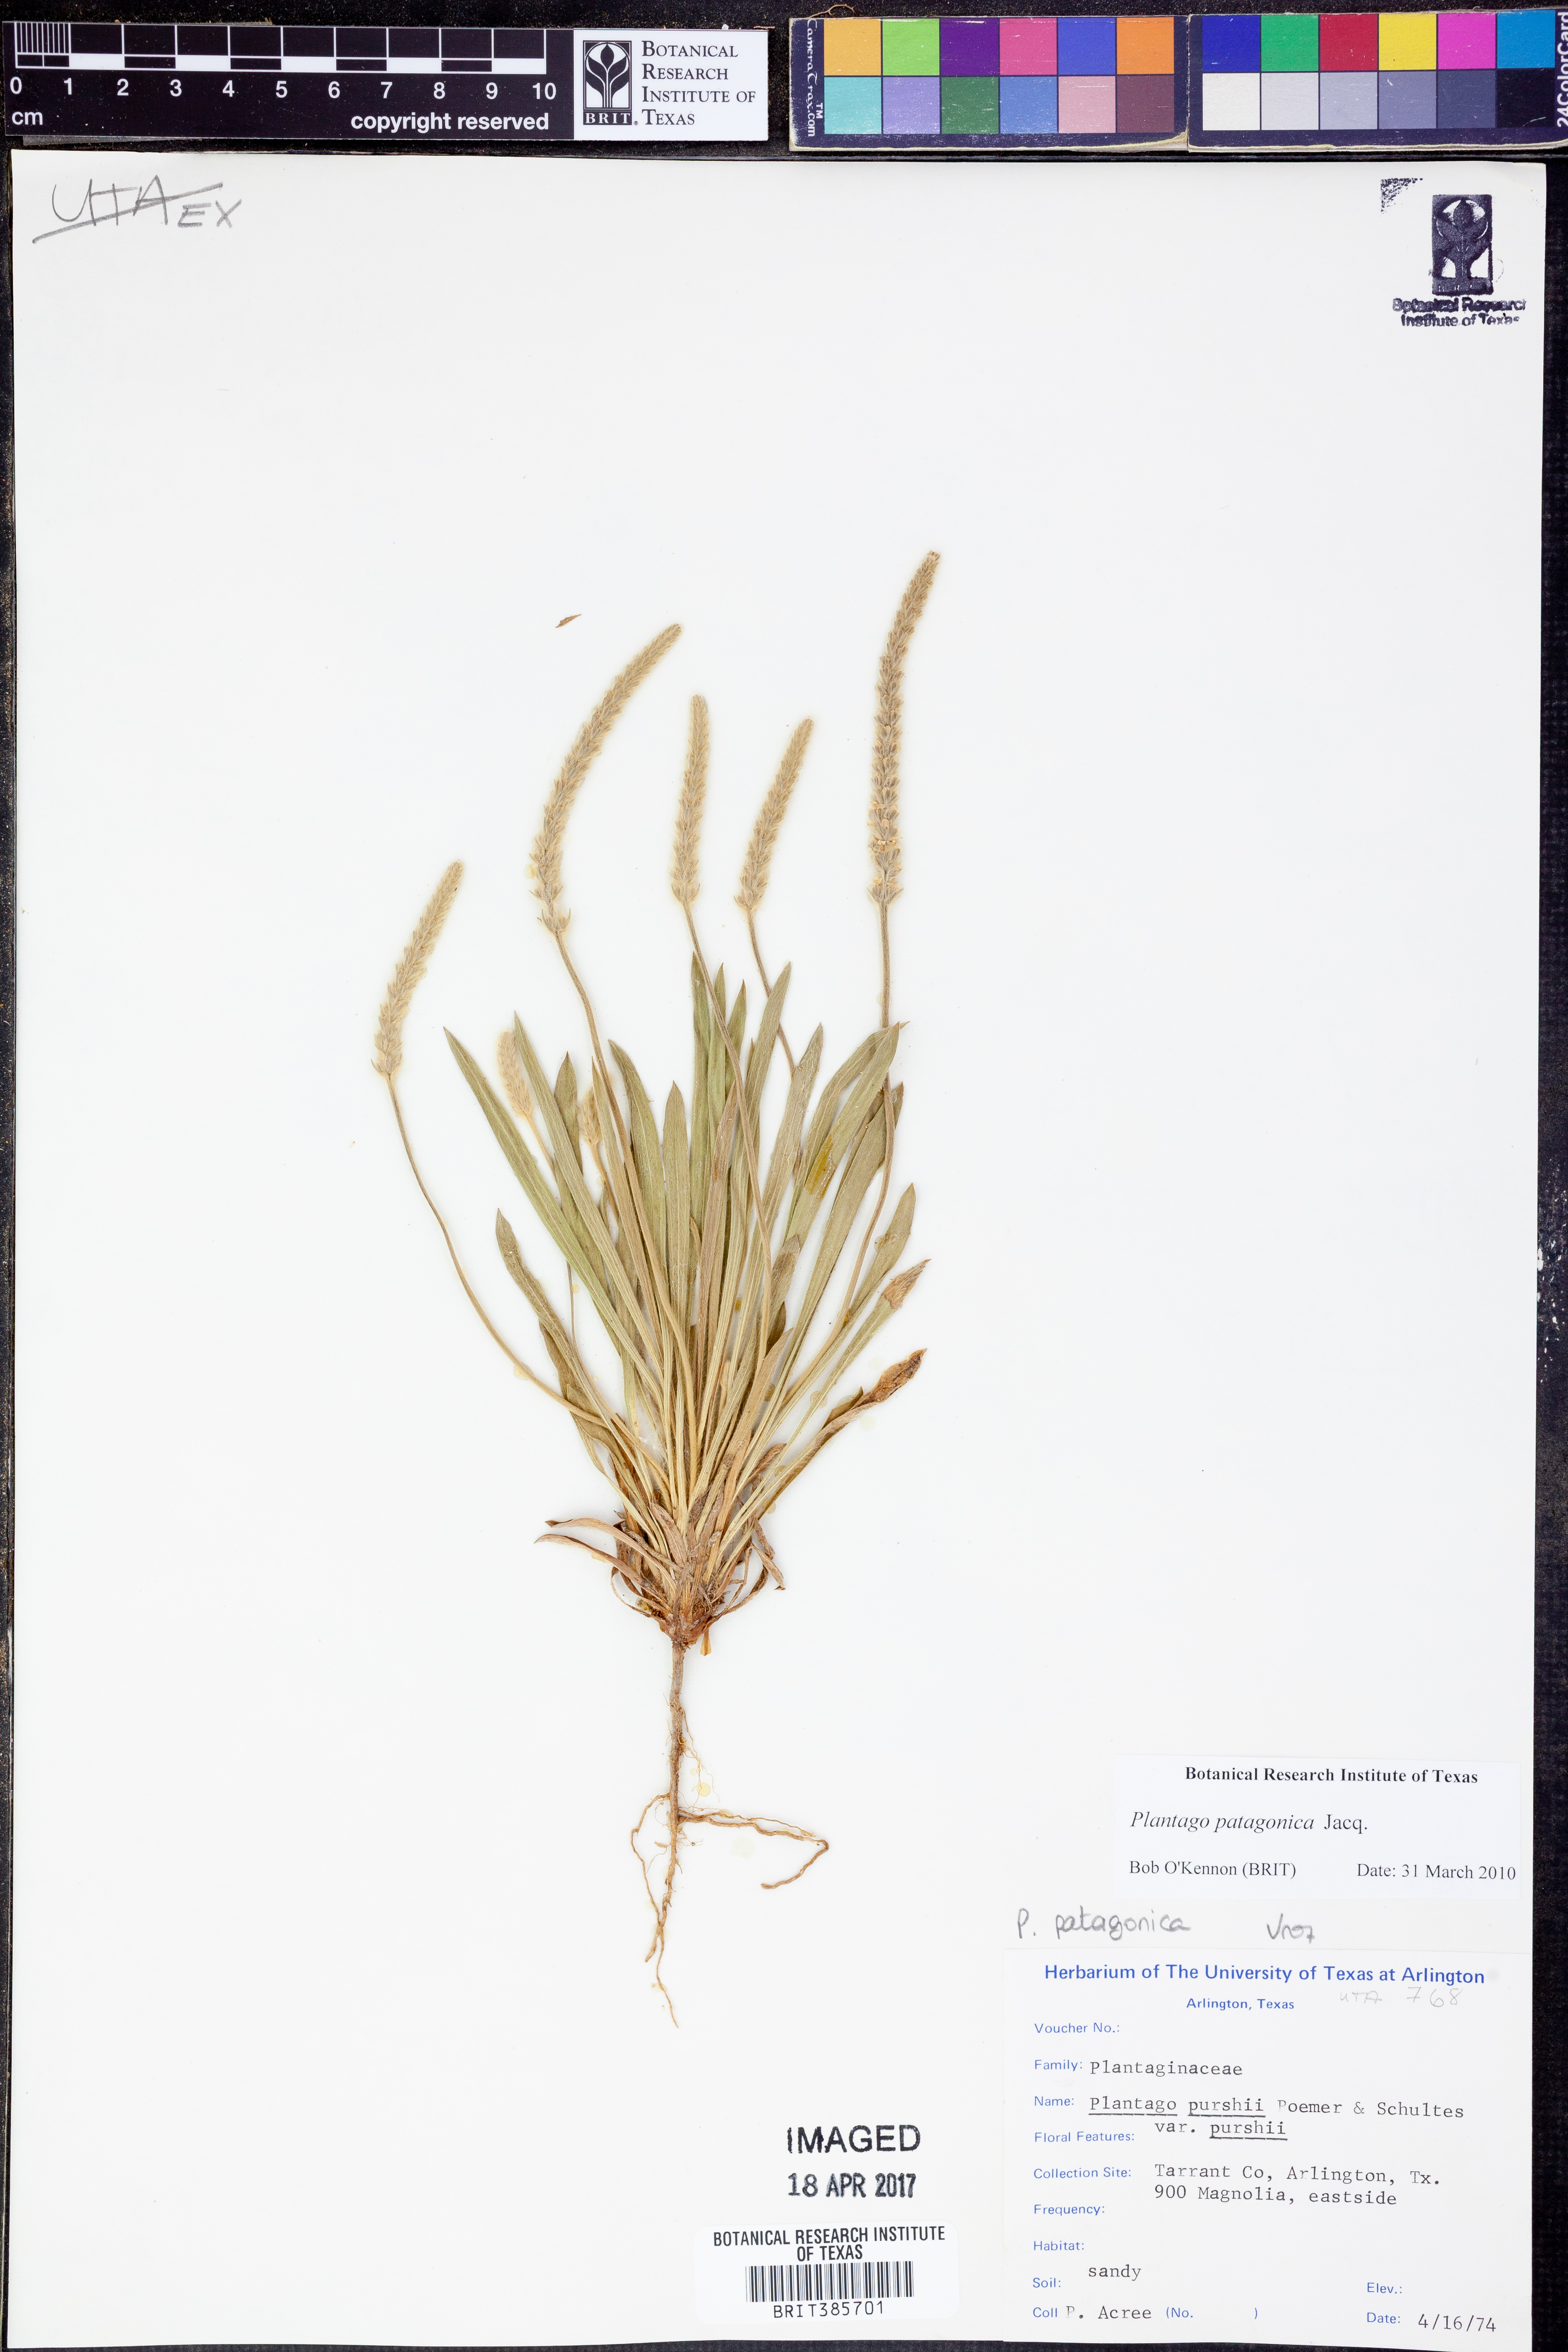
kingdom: Plantae
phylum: Tracheophyta
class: Magnoliopsida
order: Lamiales
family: Plantaginaceae
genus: Plantago
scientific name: Plantago patagonica
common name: Patagonia indian-wheat
